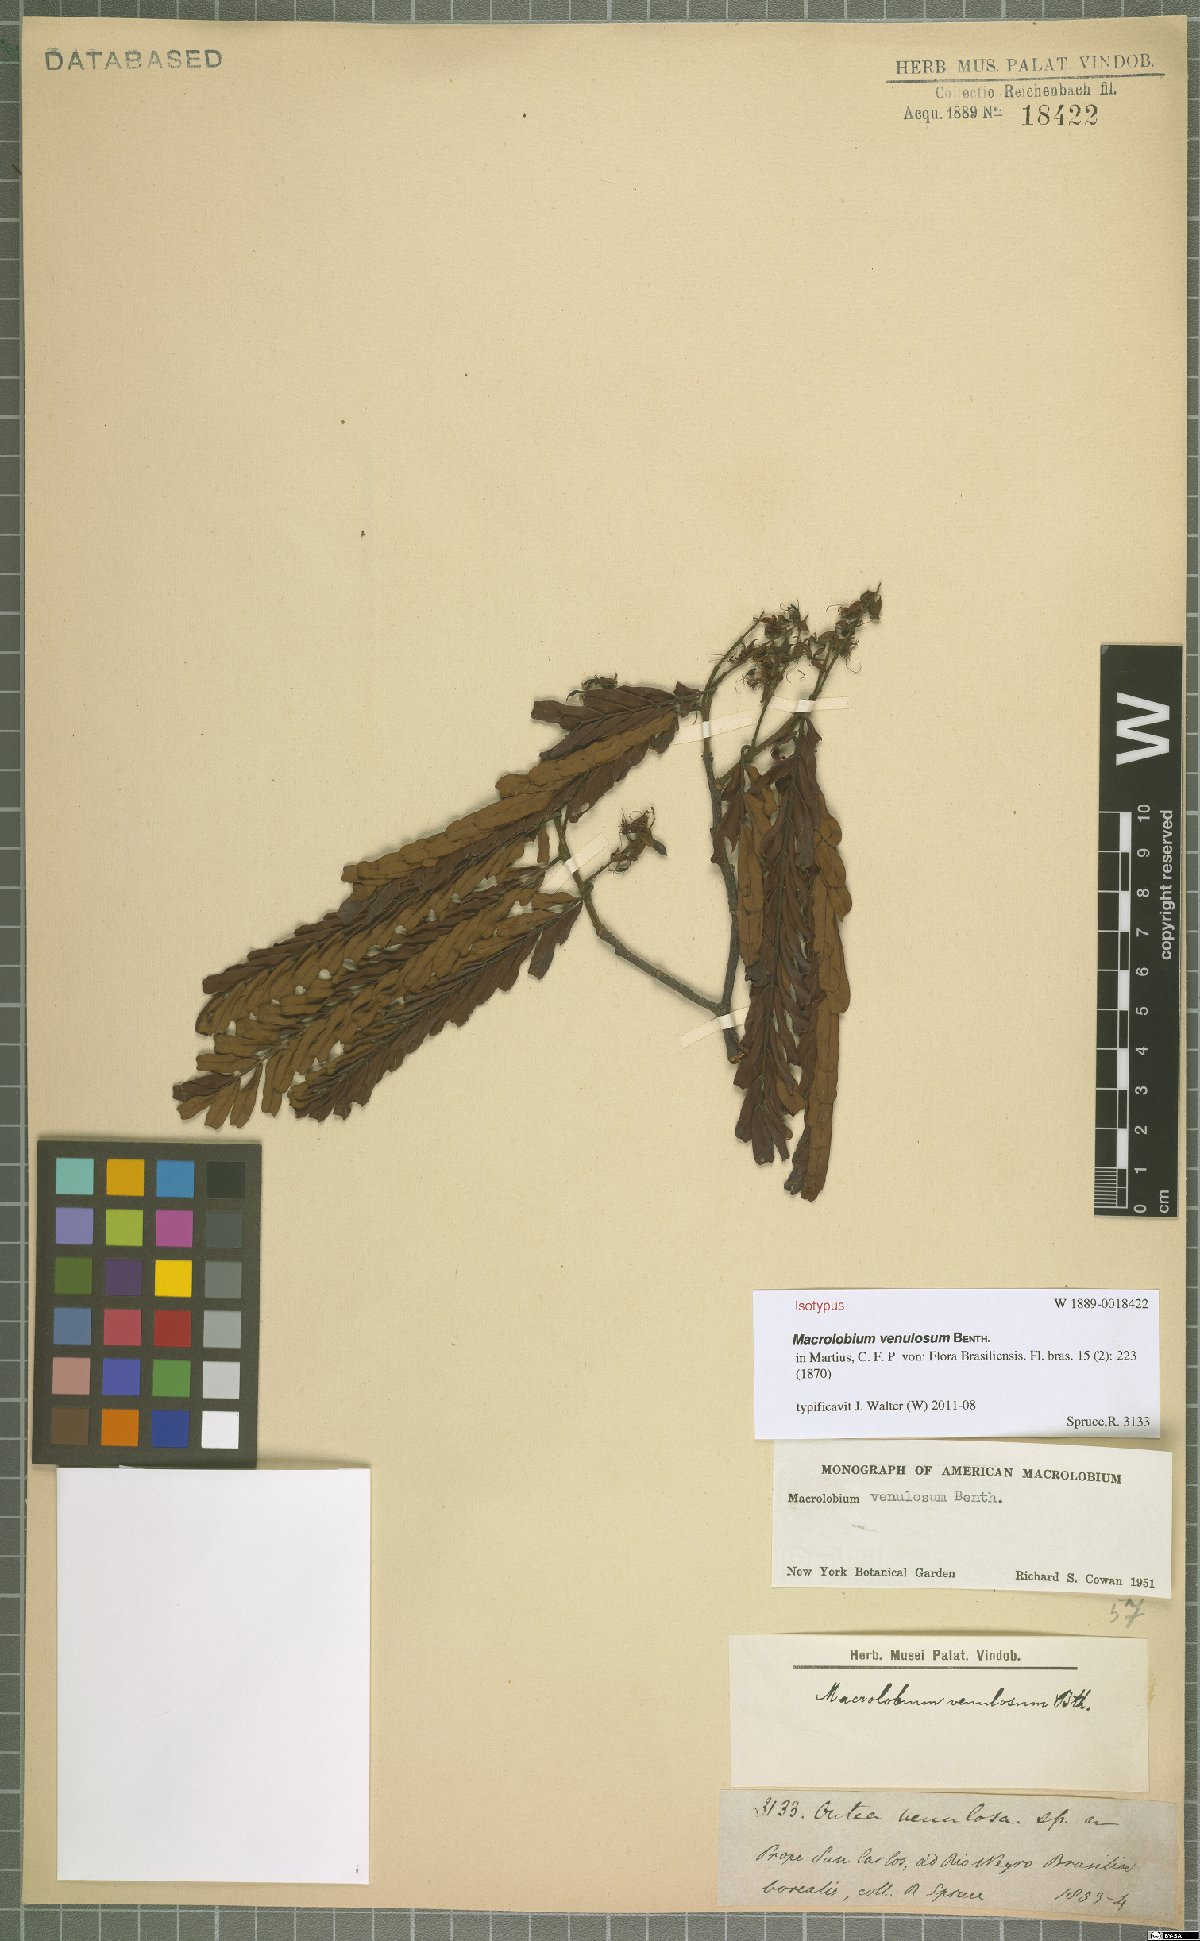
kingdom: Plantae
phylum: Tracheophyta
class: Magnoliopsida
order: Fabales
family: Fabaceae
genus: Macrolobium
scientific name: Macrolobium venulosum
